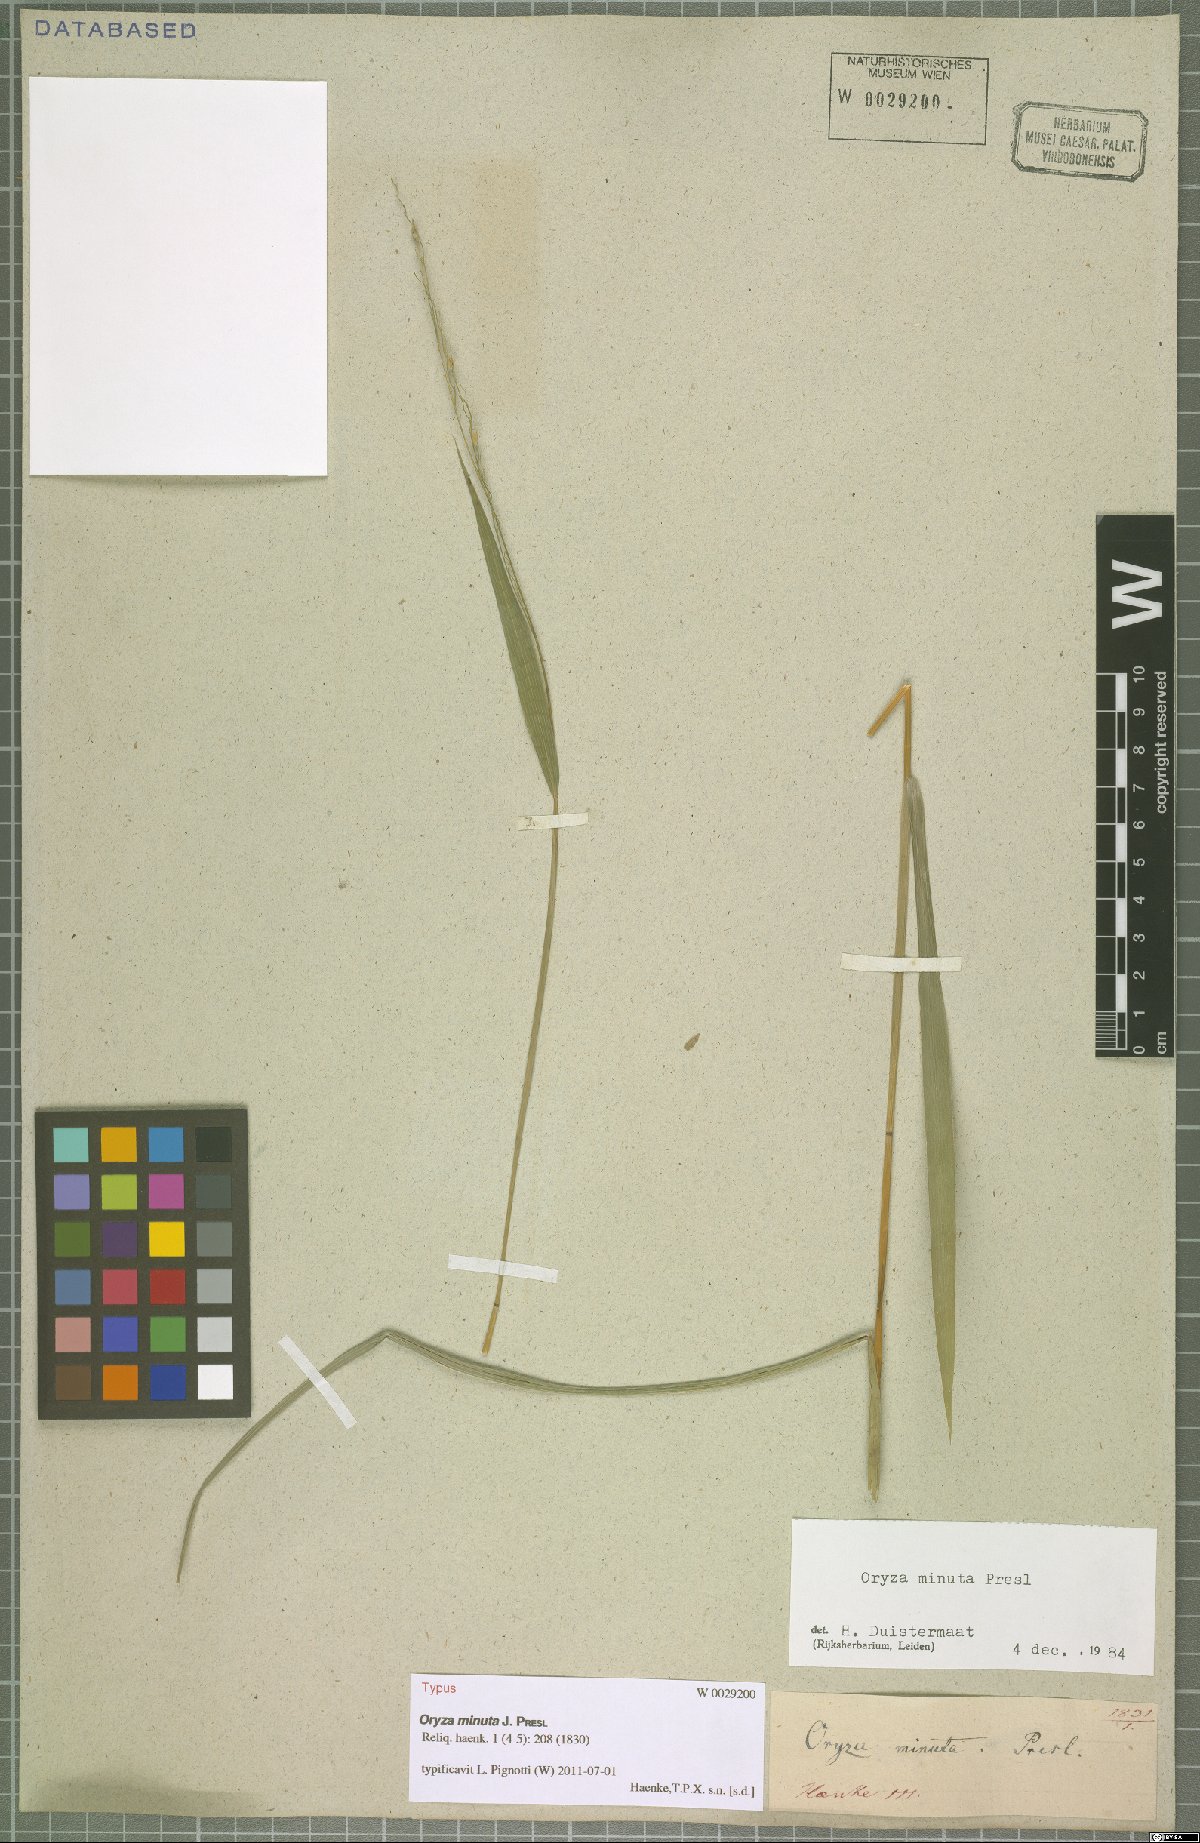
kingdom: Plantae
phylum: Tracheophyta
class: Liliopsida
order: Poales
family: Poaceae
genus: Oryza
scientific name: Oryza minuta
